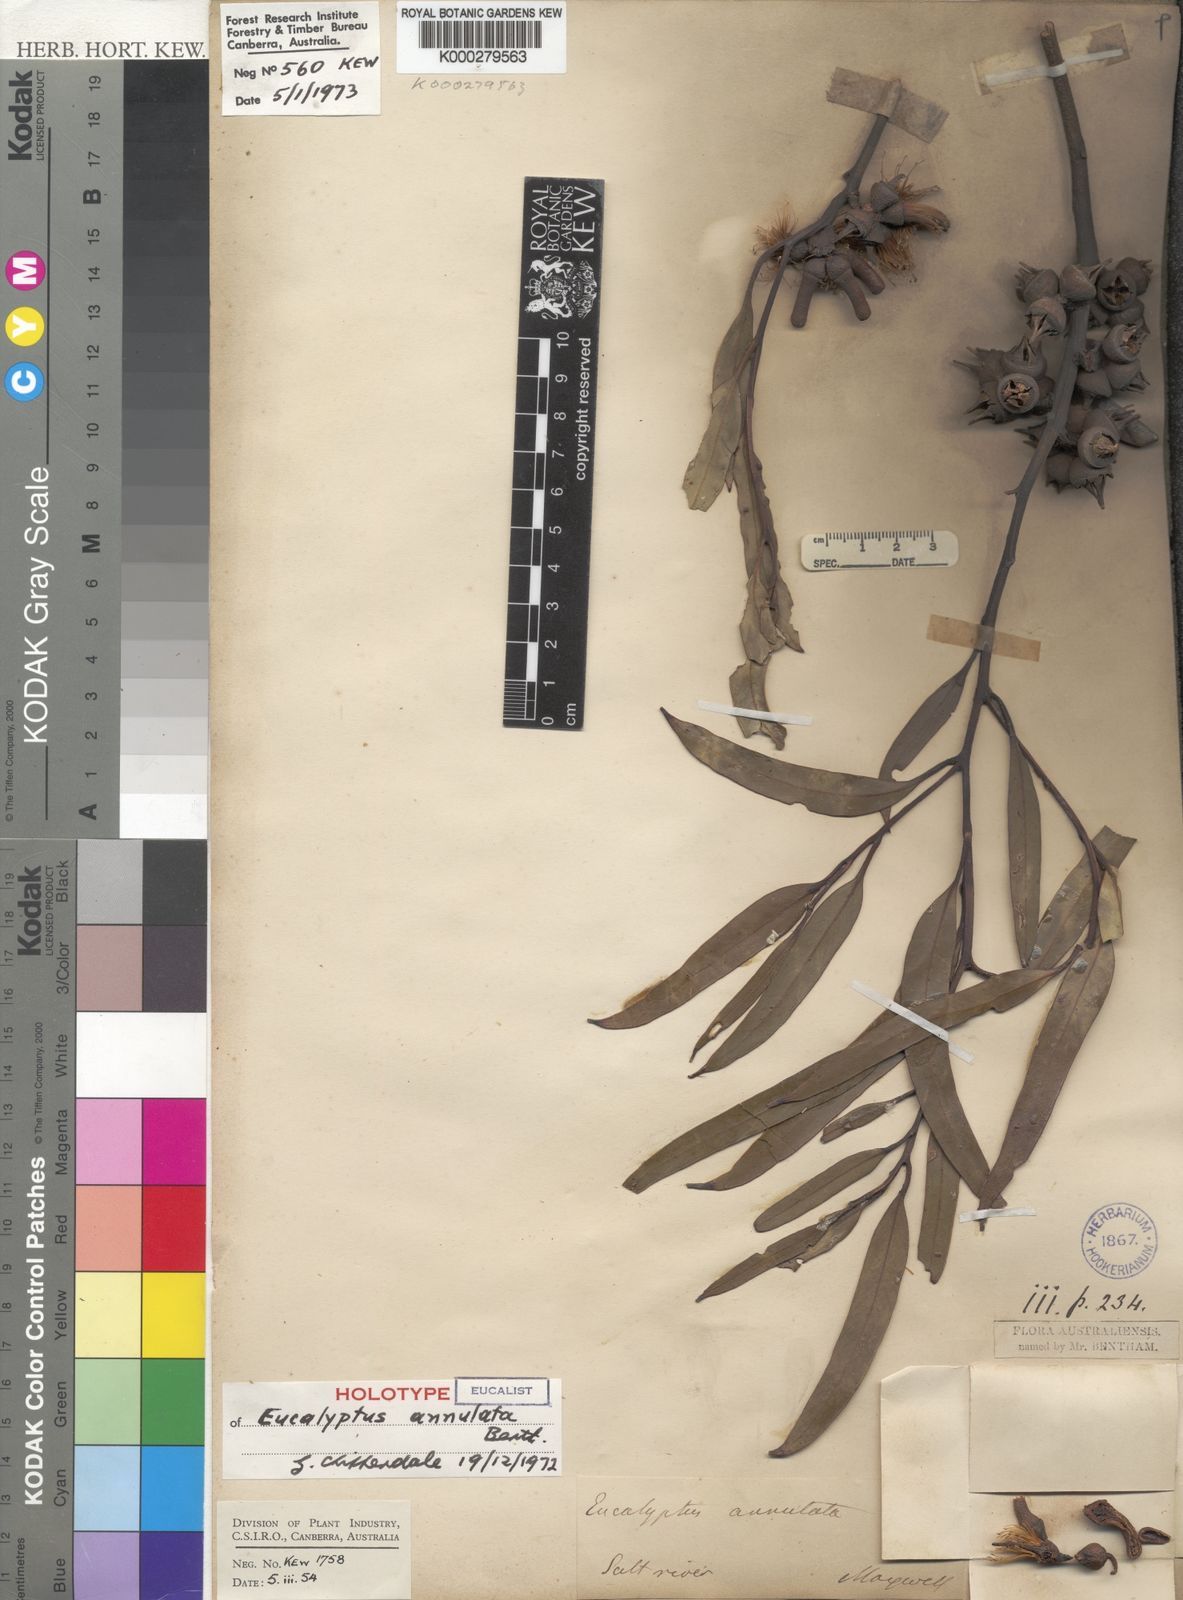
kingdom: Plantae
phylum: Tracheophyta
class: Magnoliopsida
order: Myrtales
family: Myrtaceae
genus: Eucalyptus
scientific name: Eucalyptus annulata
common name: Open-fruited mallee
